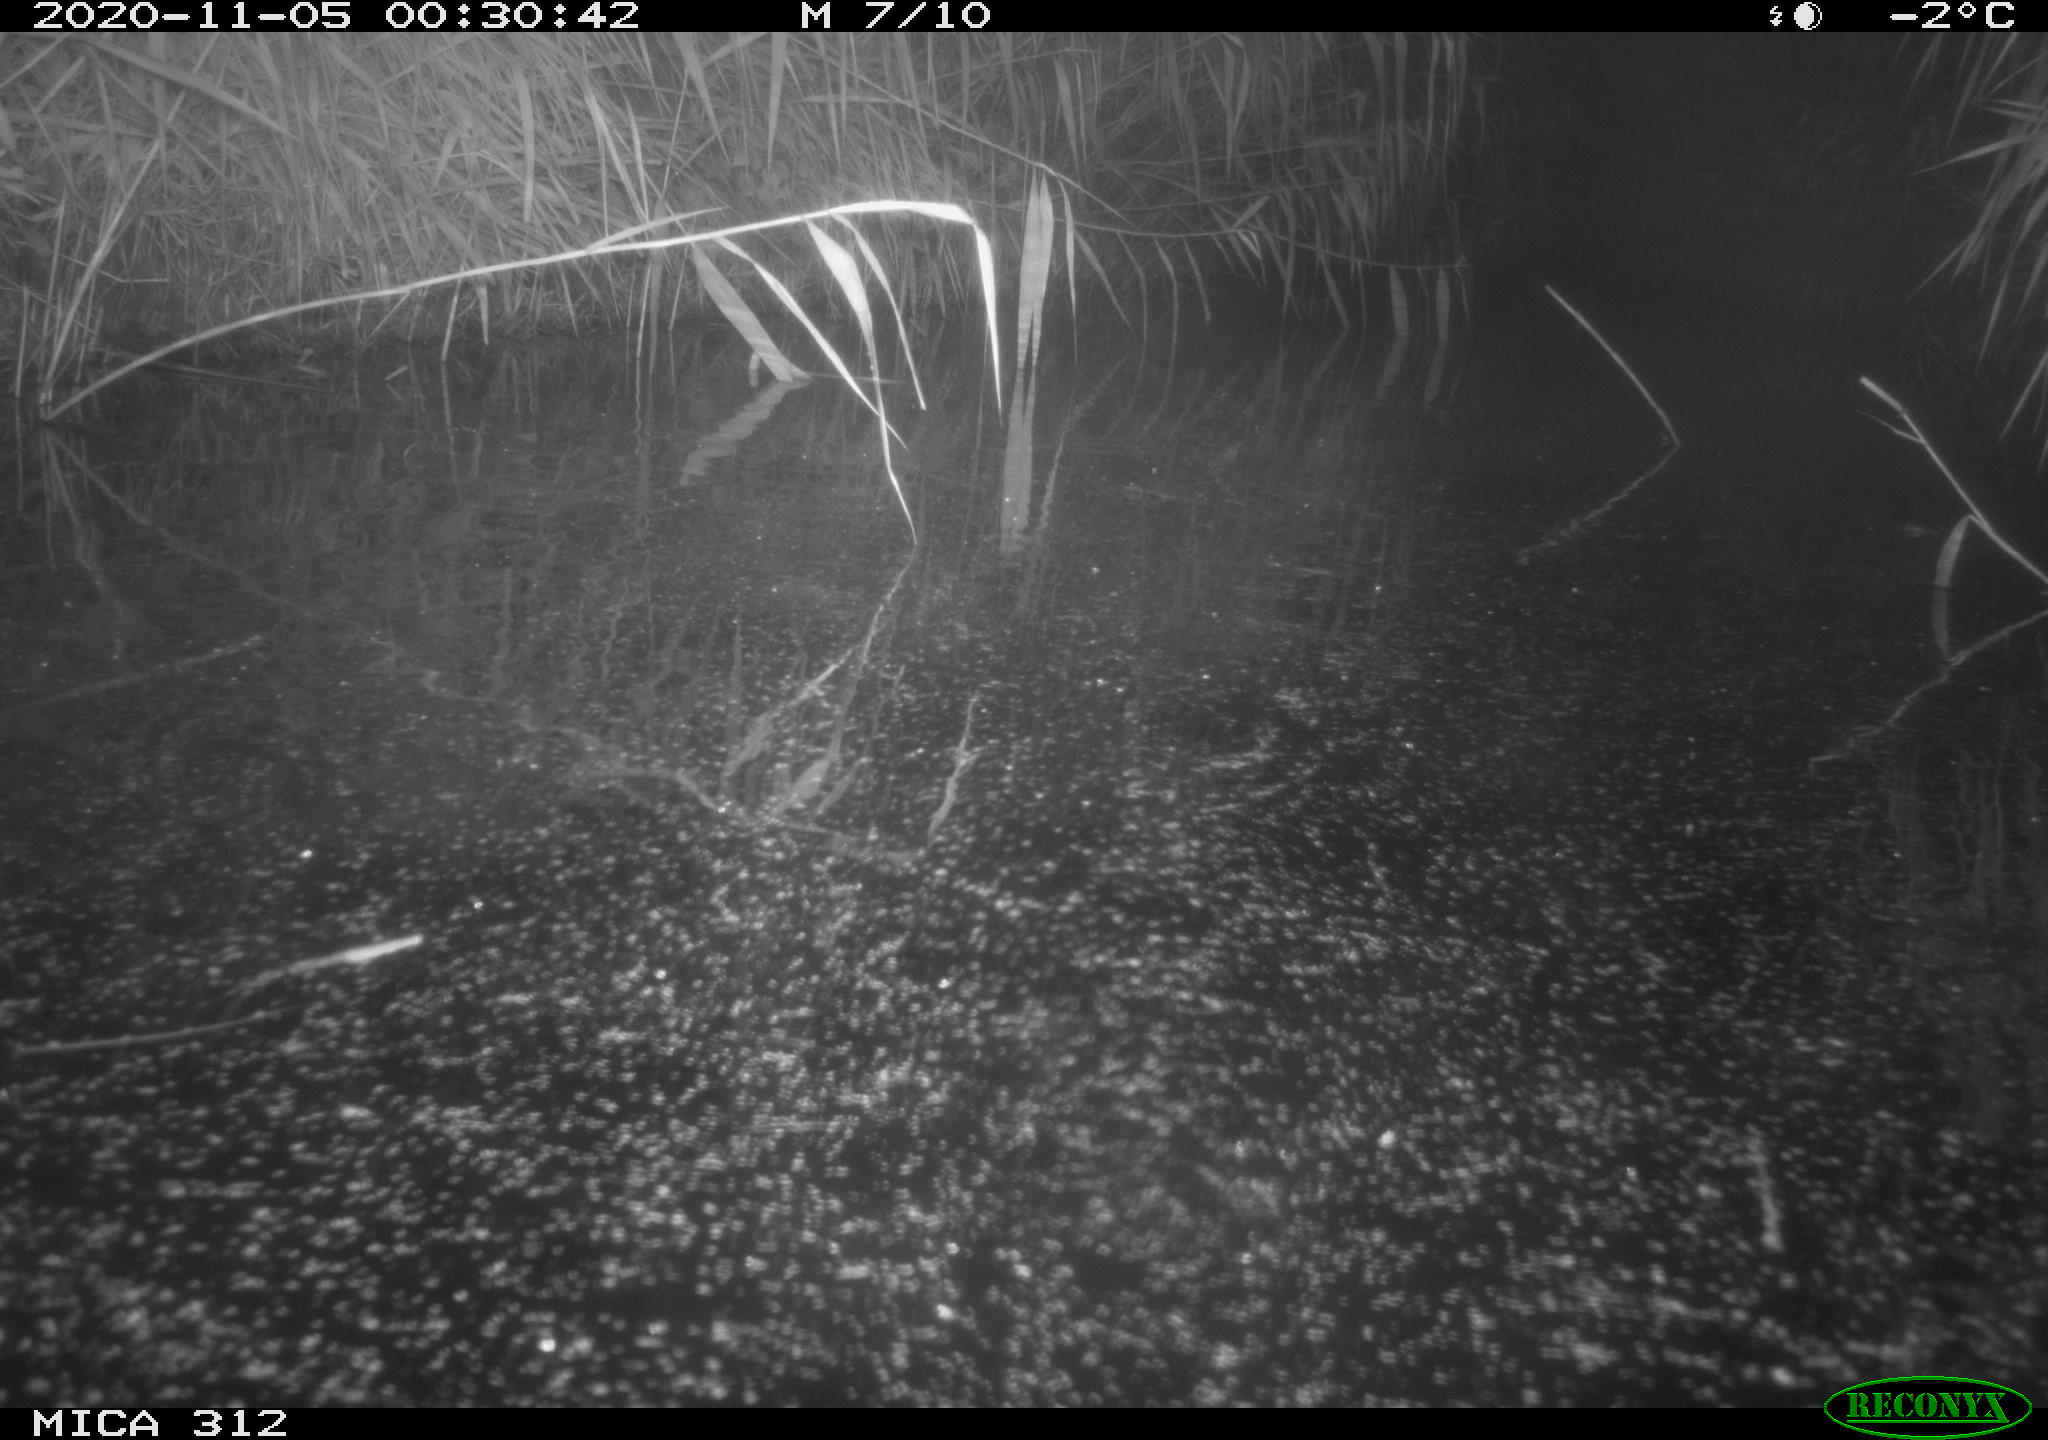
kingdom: Animalia
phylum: Chordata
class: Mammalia
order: Rodentia
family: Muridae
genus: Rattus
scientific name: Rattus norvegicus
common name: Brown rat
